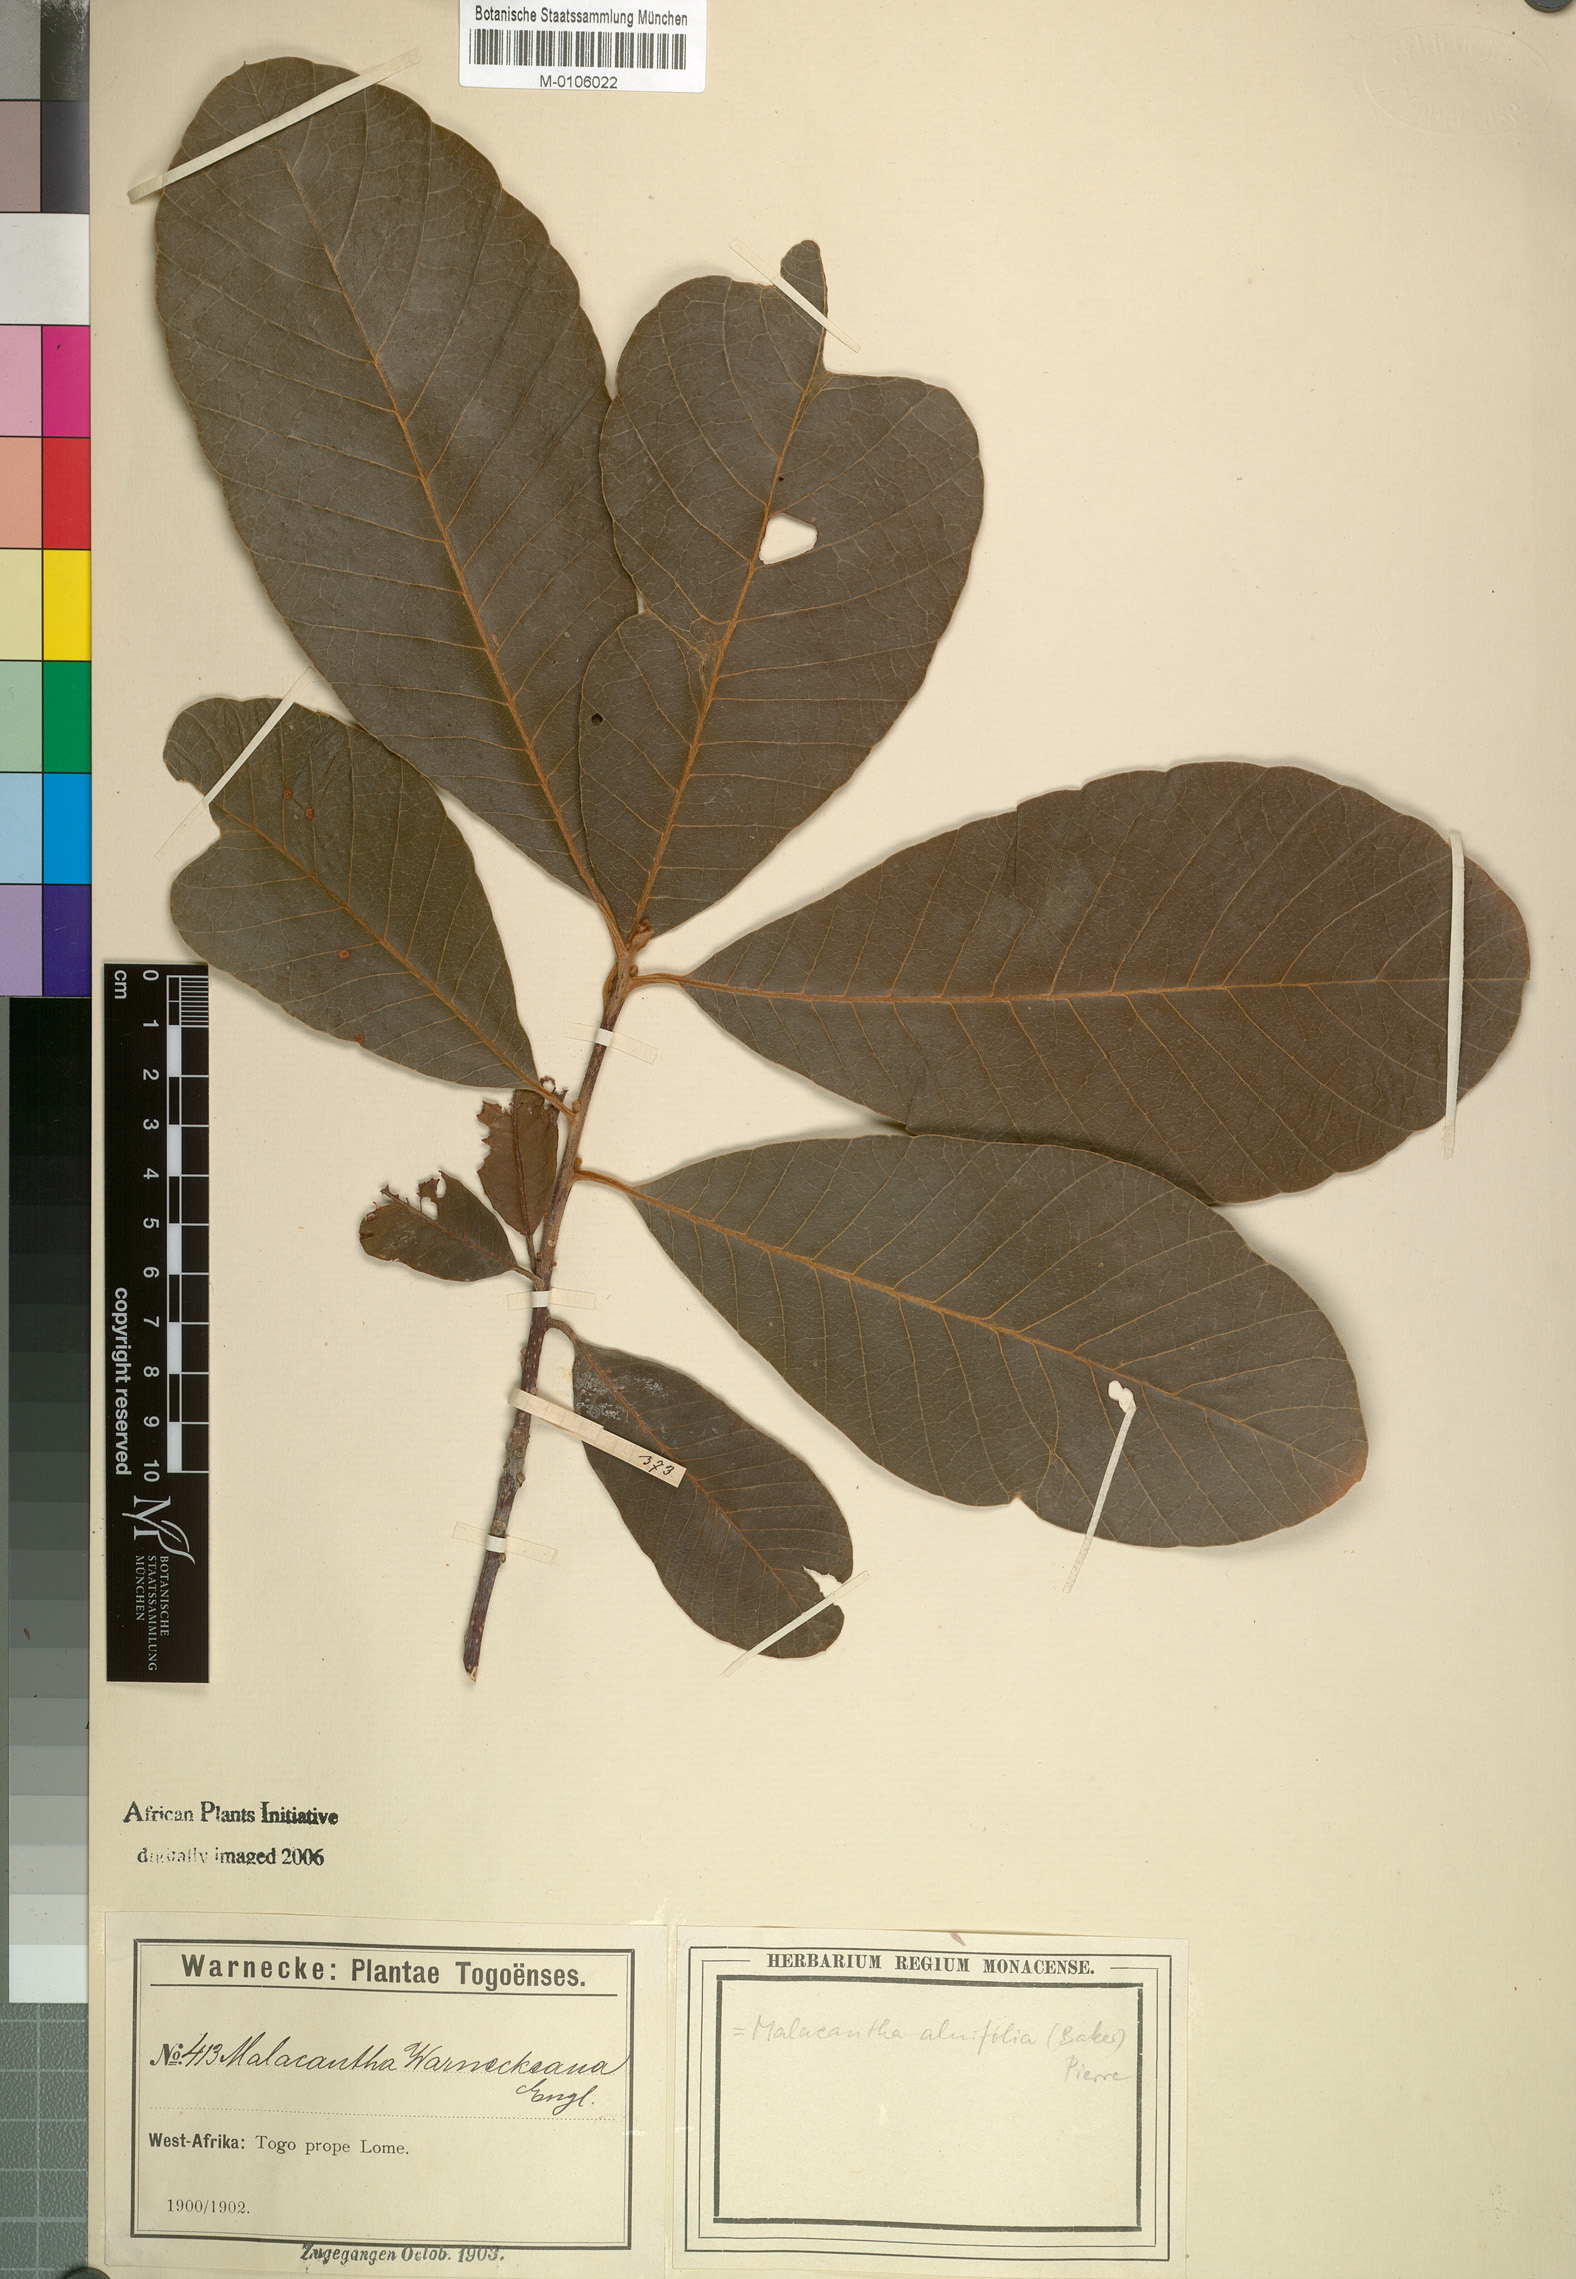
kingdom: Plantae
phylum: Tracheophyta
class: Magnoliopsida
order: Ericales
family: Sapotaceae
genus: Malacantha
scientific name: Malacantha alnifolia
